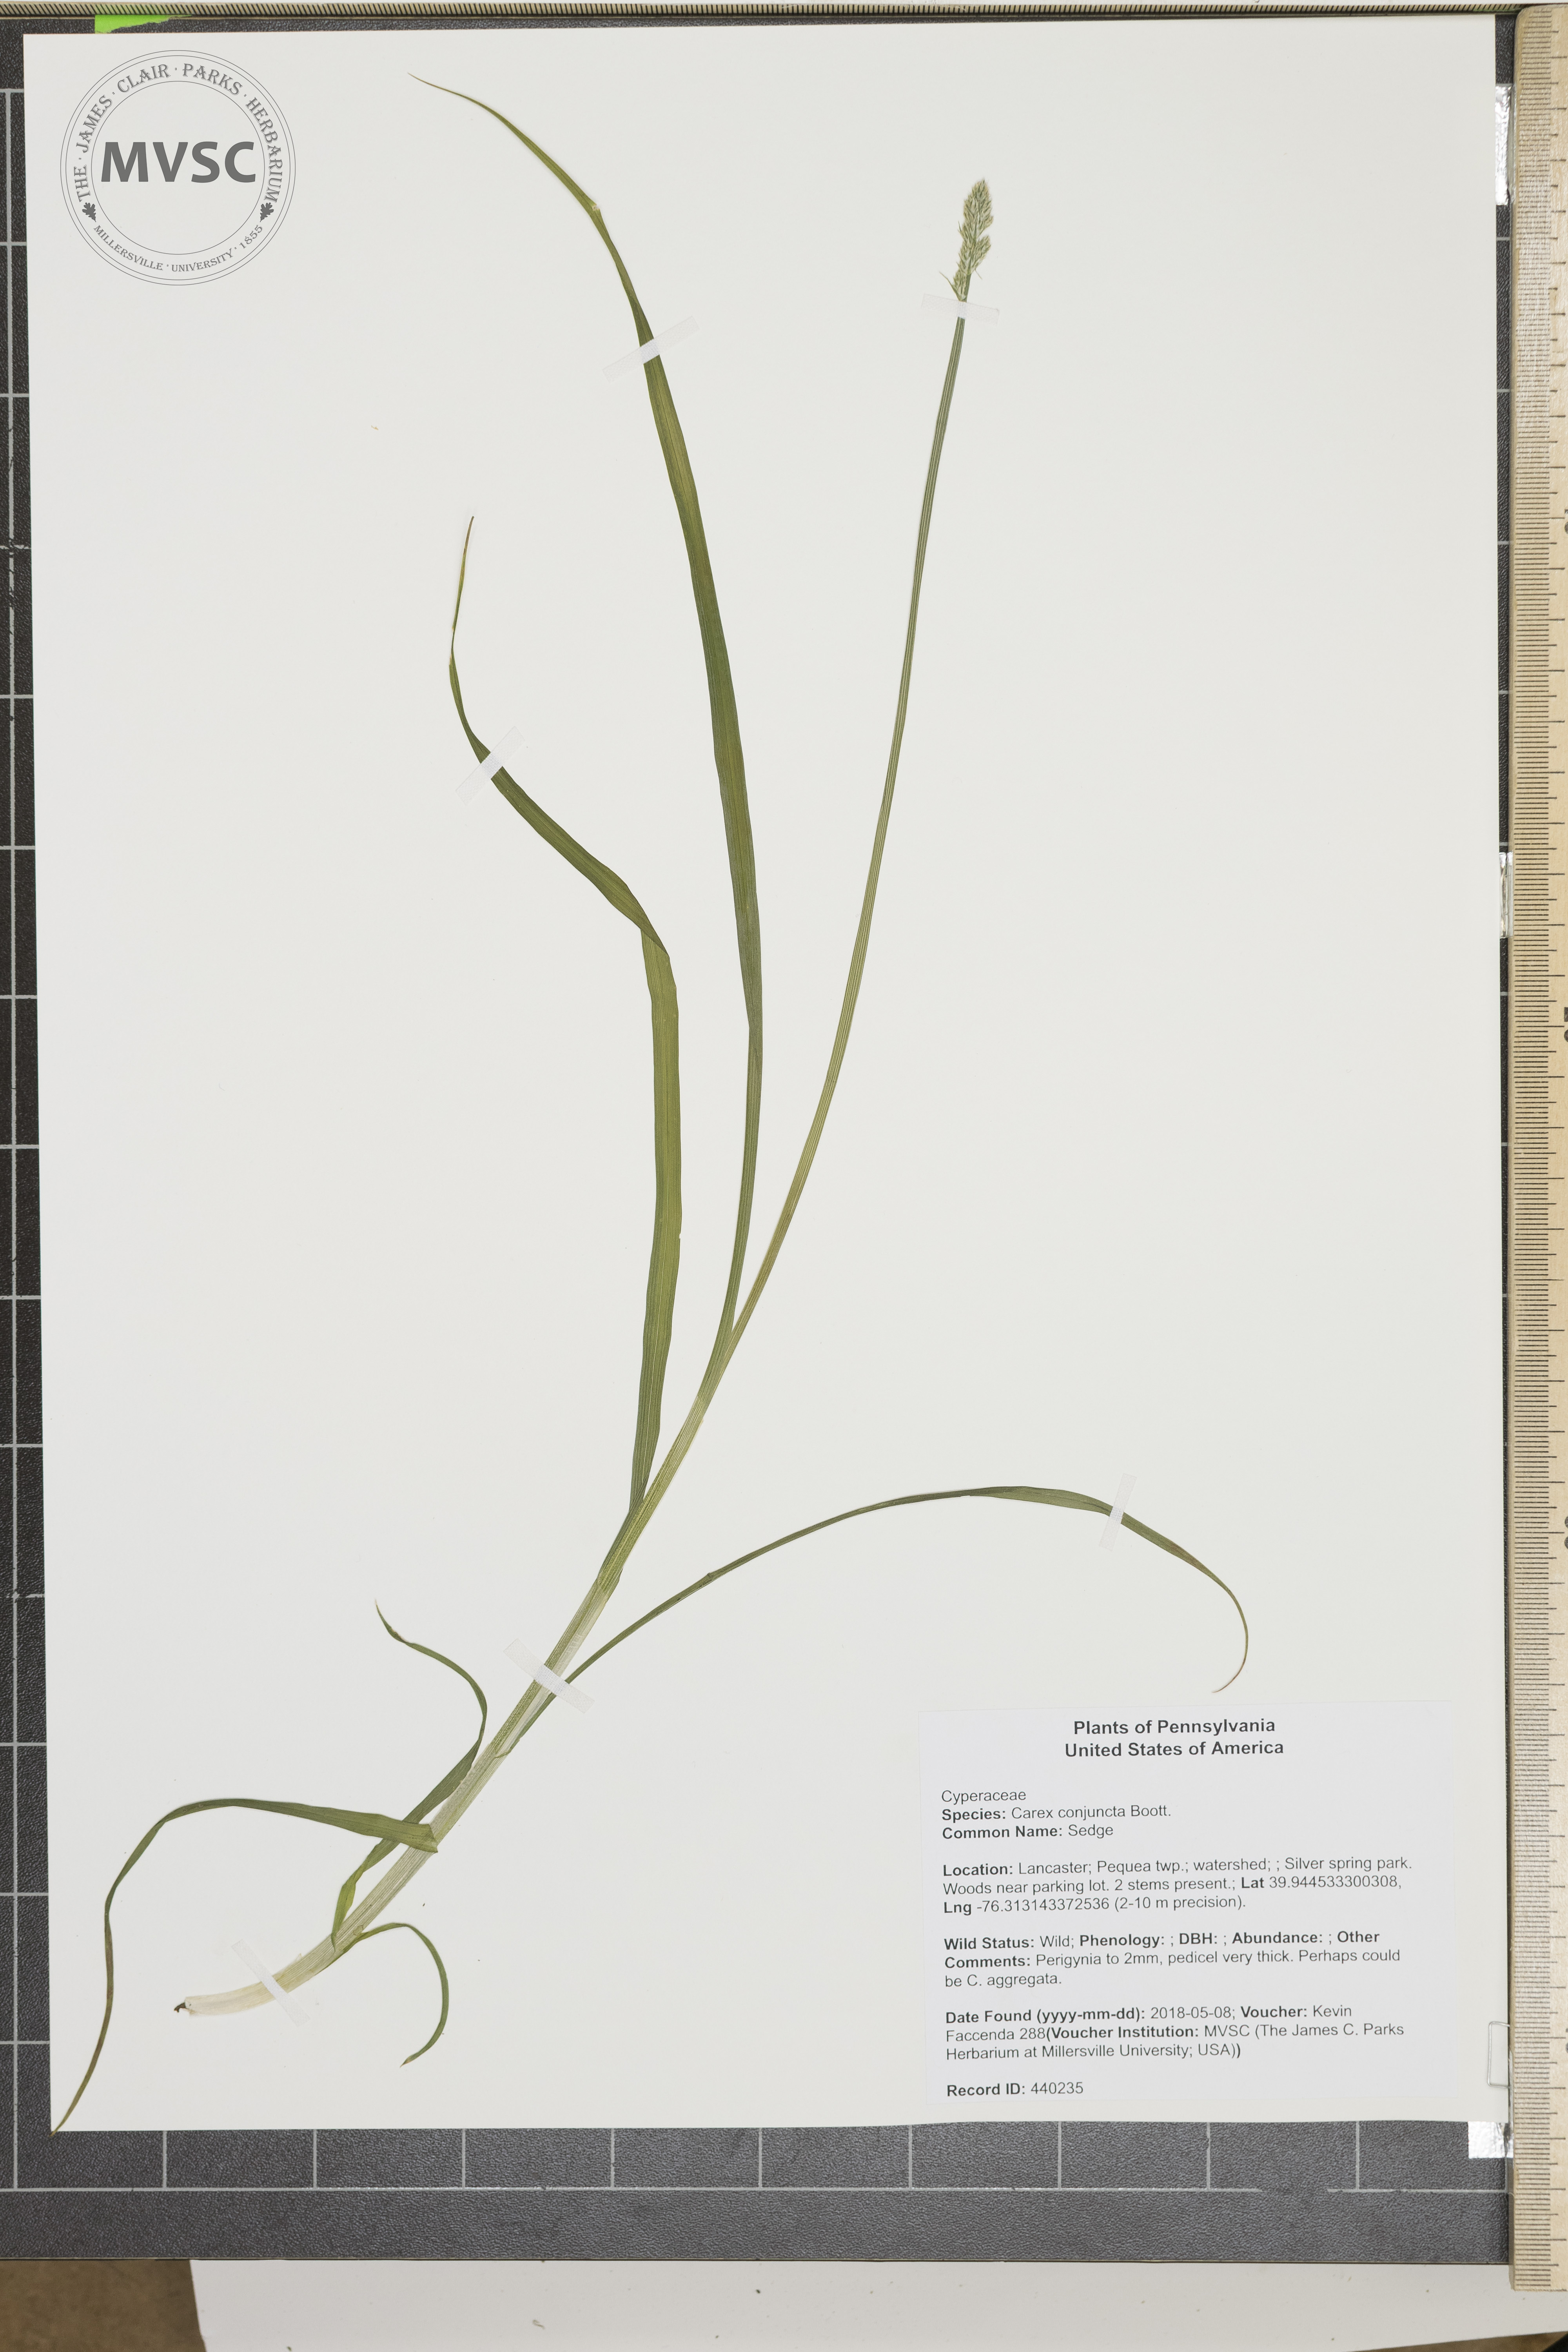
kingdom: Plantae
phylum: Tracheophyta
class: Liliopsida
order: Poales
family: Cyperaceae
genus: Carex
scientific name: Carex conjuncta
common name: Sedge
